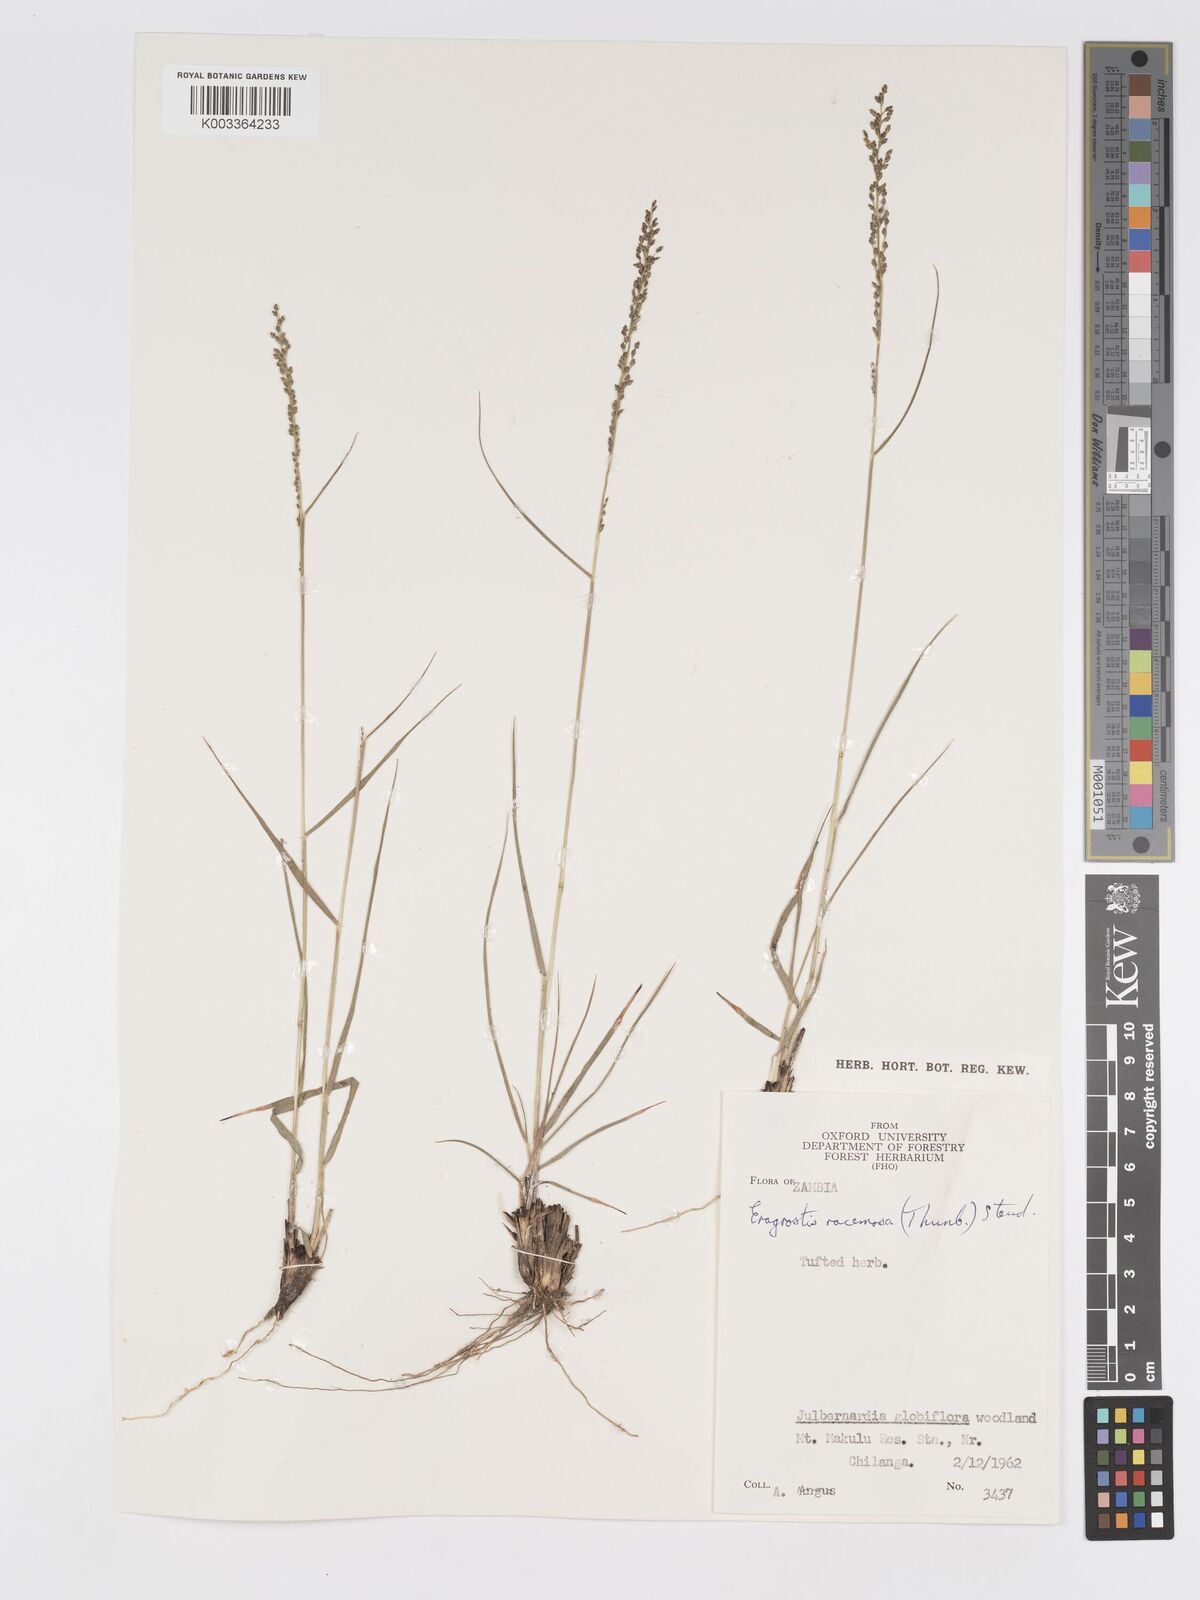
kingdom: Plantae
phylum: Tracheophyta
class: Liliopsida
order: Poales
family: Poaceae
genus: Eragrostis
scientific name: Eragrostis racemosa
